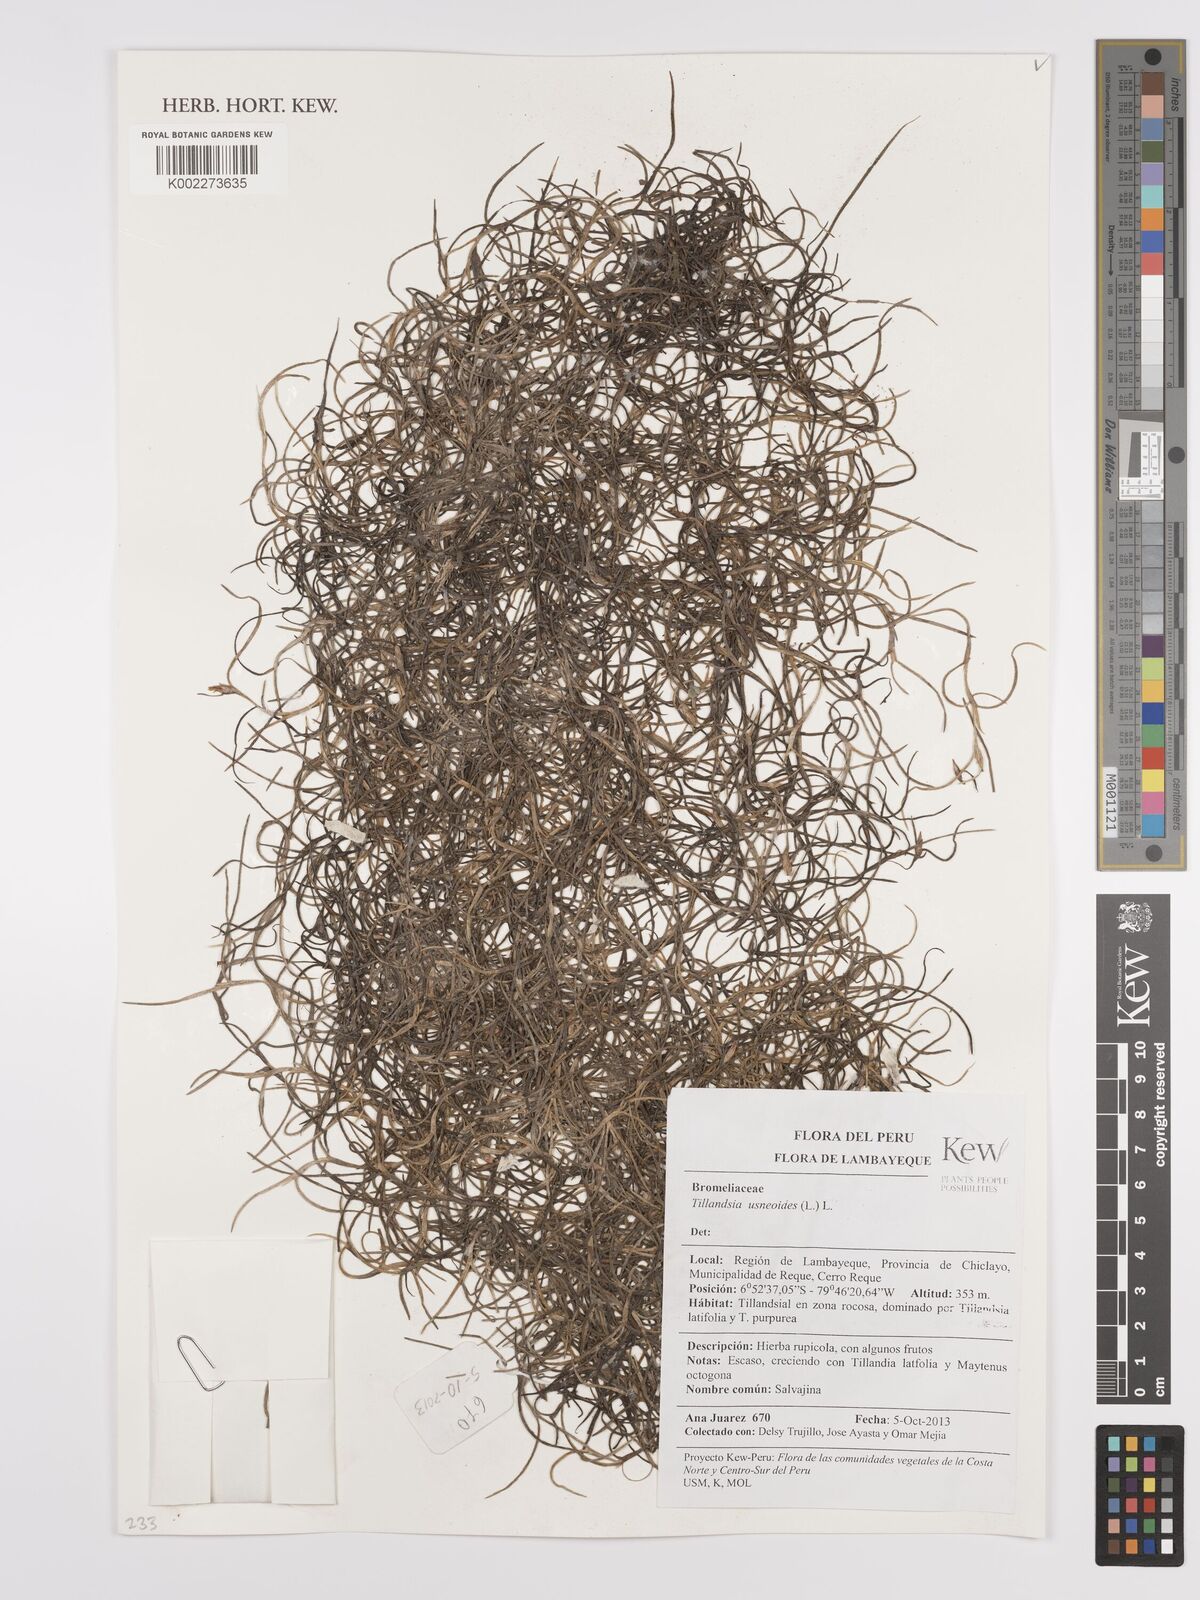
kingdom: Plantae
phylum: Tracheophyta
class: Liliopsida
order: Poales
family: Bromeliaceae
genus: Tillandsia
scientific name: Tillandsia usneoides
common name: Spanish moss
